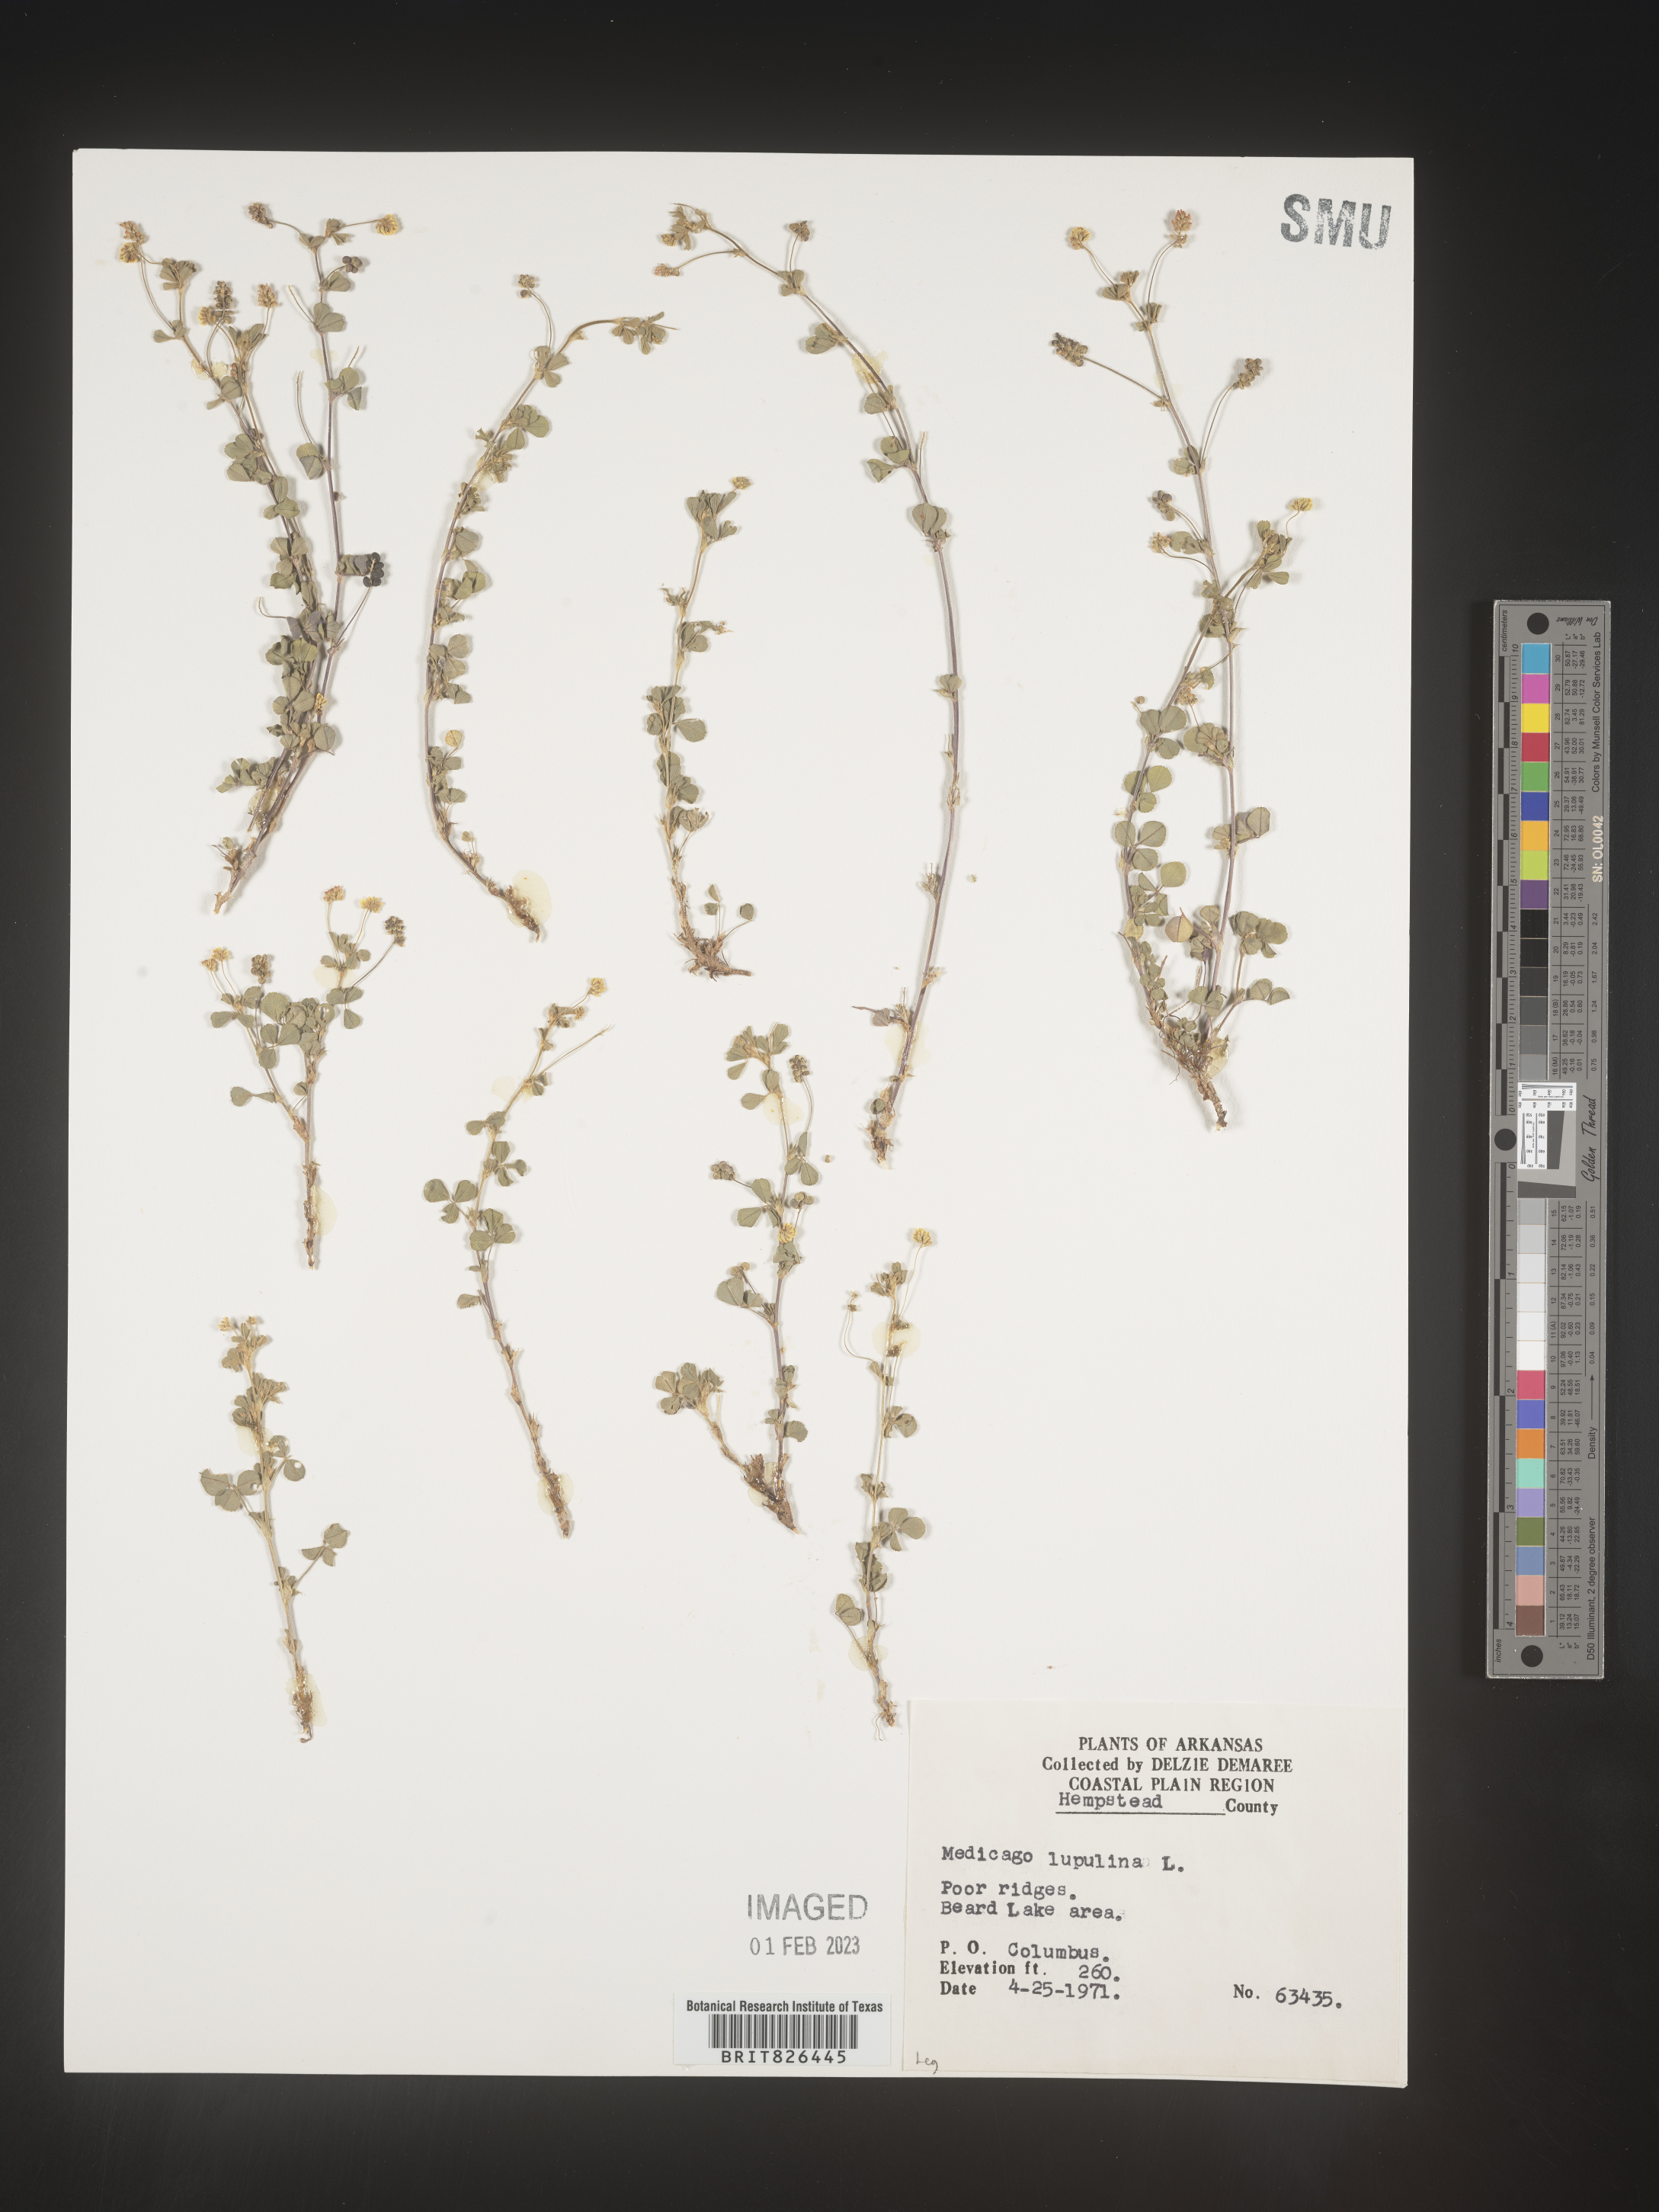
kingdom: Plantae
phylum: Tracheophyta
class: Magnoliopsida
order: Fabales
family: Fabaceae
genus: Medicago
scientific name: Medicago lupulina
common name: Black medick
